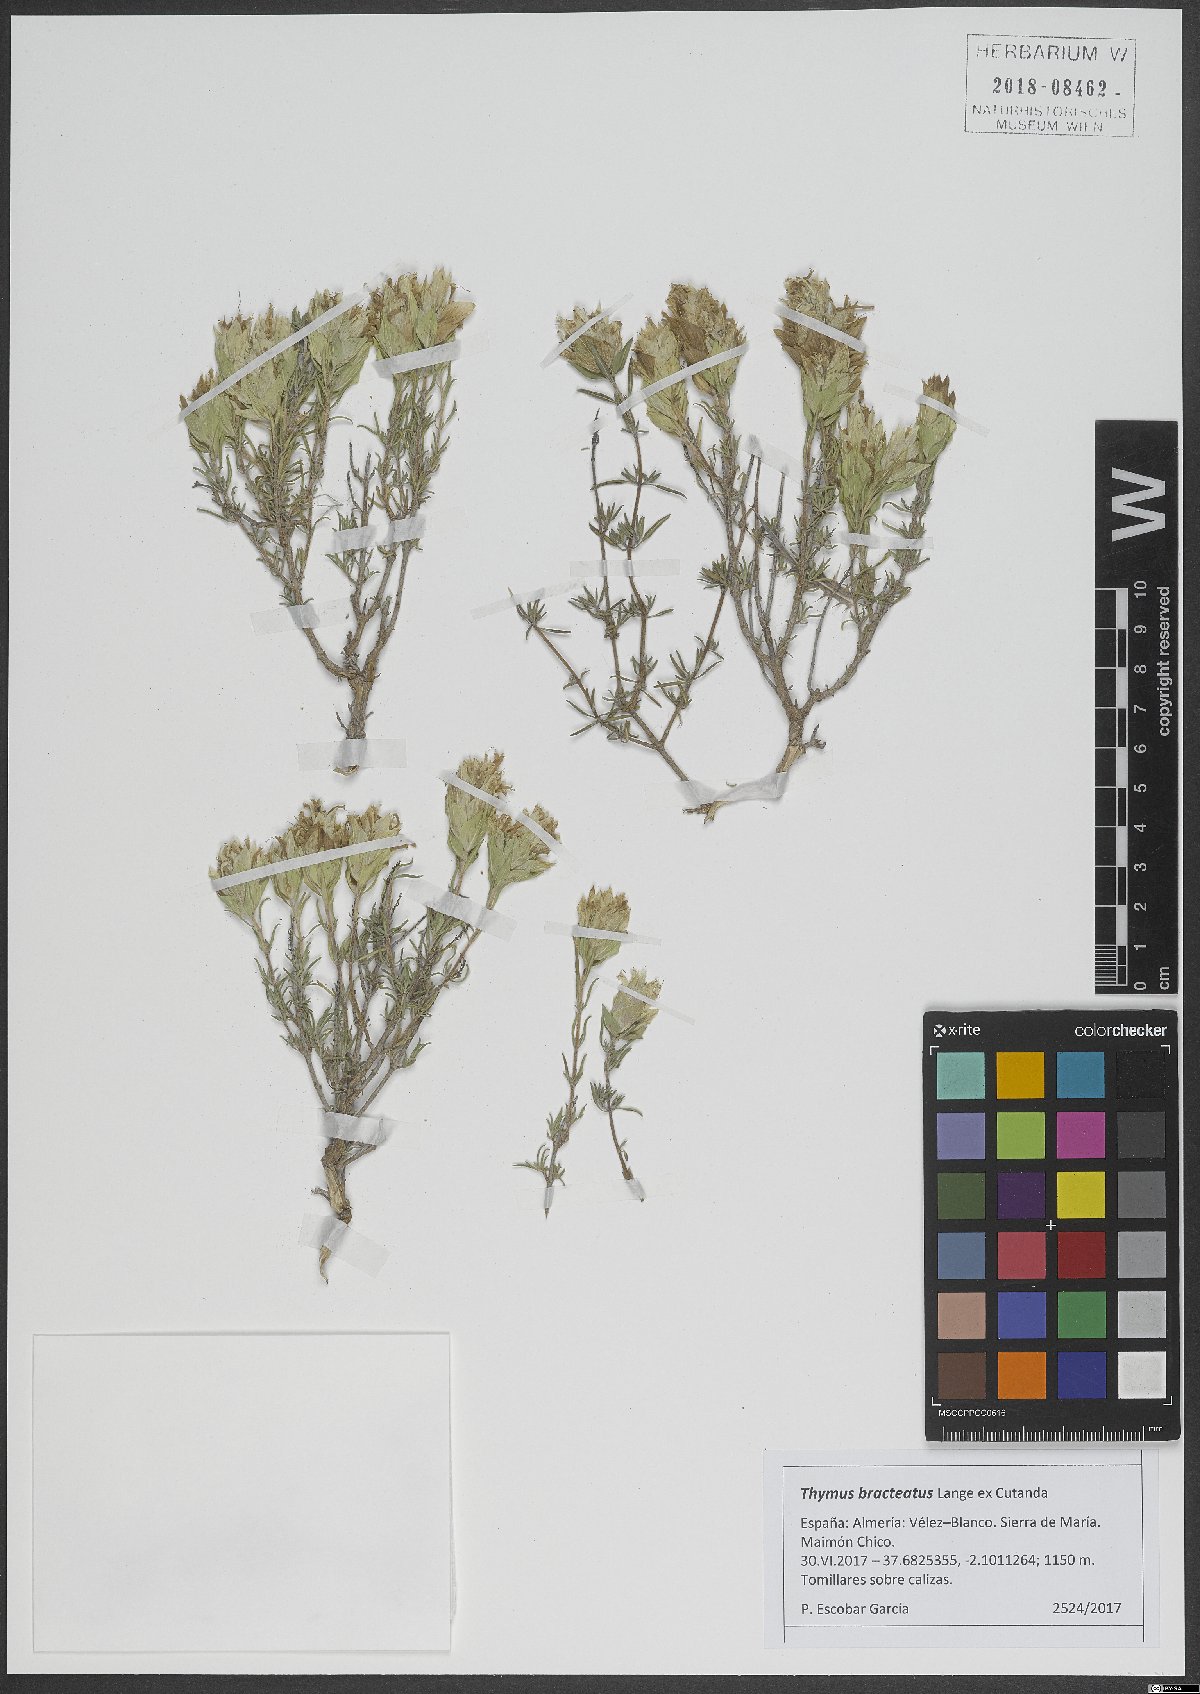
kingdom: Plantae
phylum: Tracheophyta
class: Magnoliopsida
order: Lamiales
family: Lamiaceae
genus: Thymus
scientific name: Thymus bracteatus
